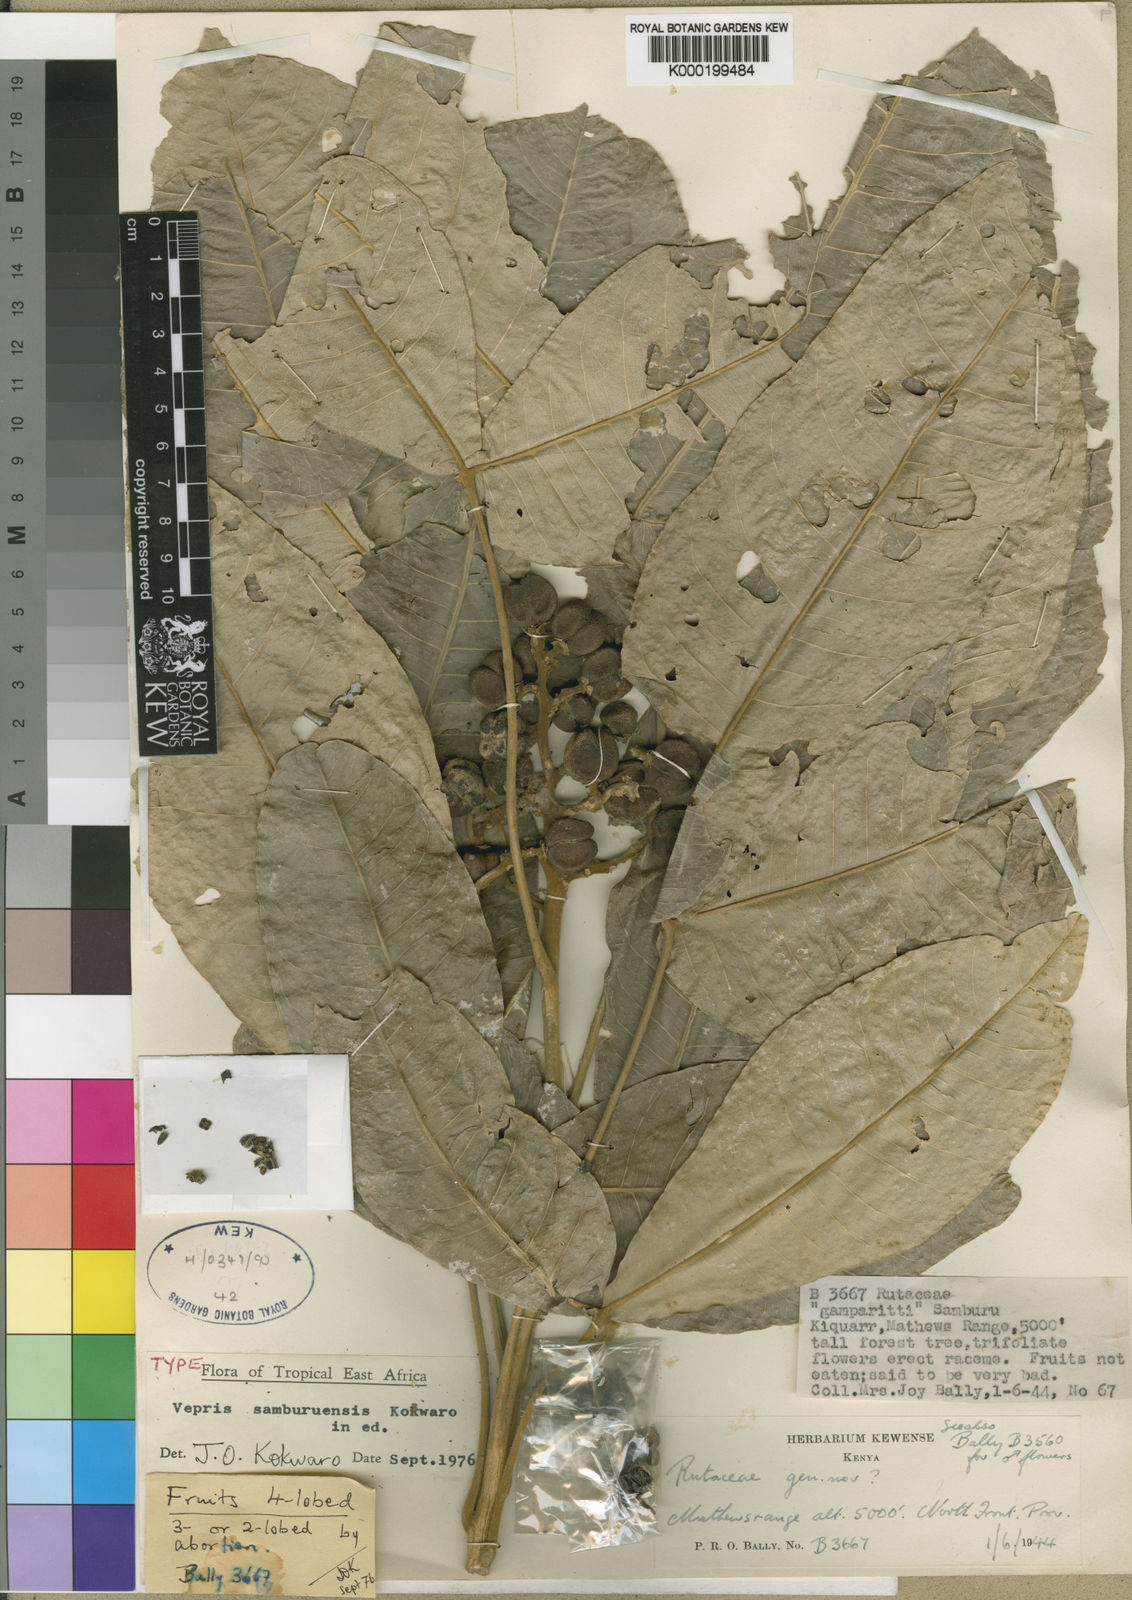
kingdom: Plantae
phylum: Tracheophyta
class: Magnoliopsida
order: Sapindales
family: Rutaceae
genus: Vepris
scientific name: Vepris samburuensis
